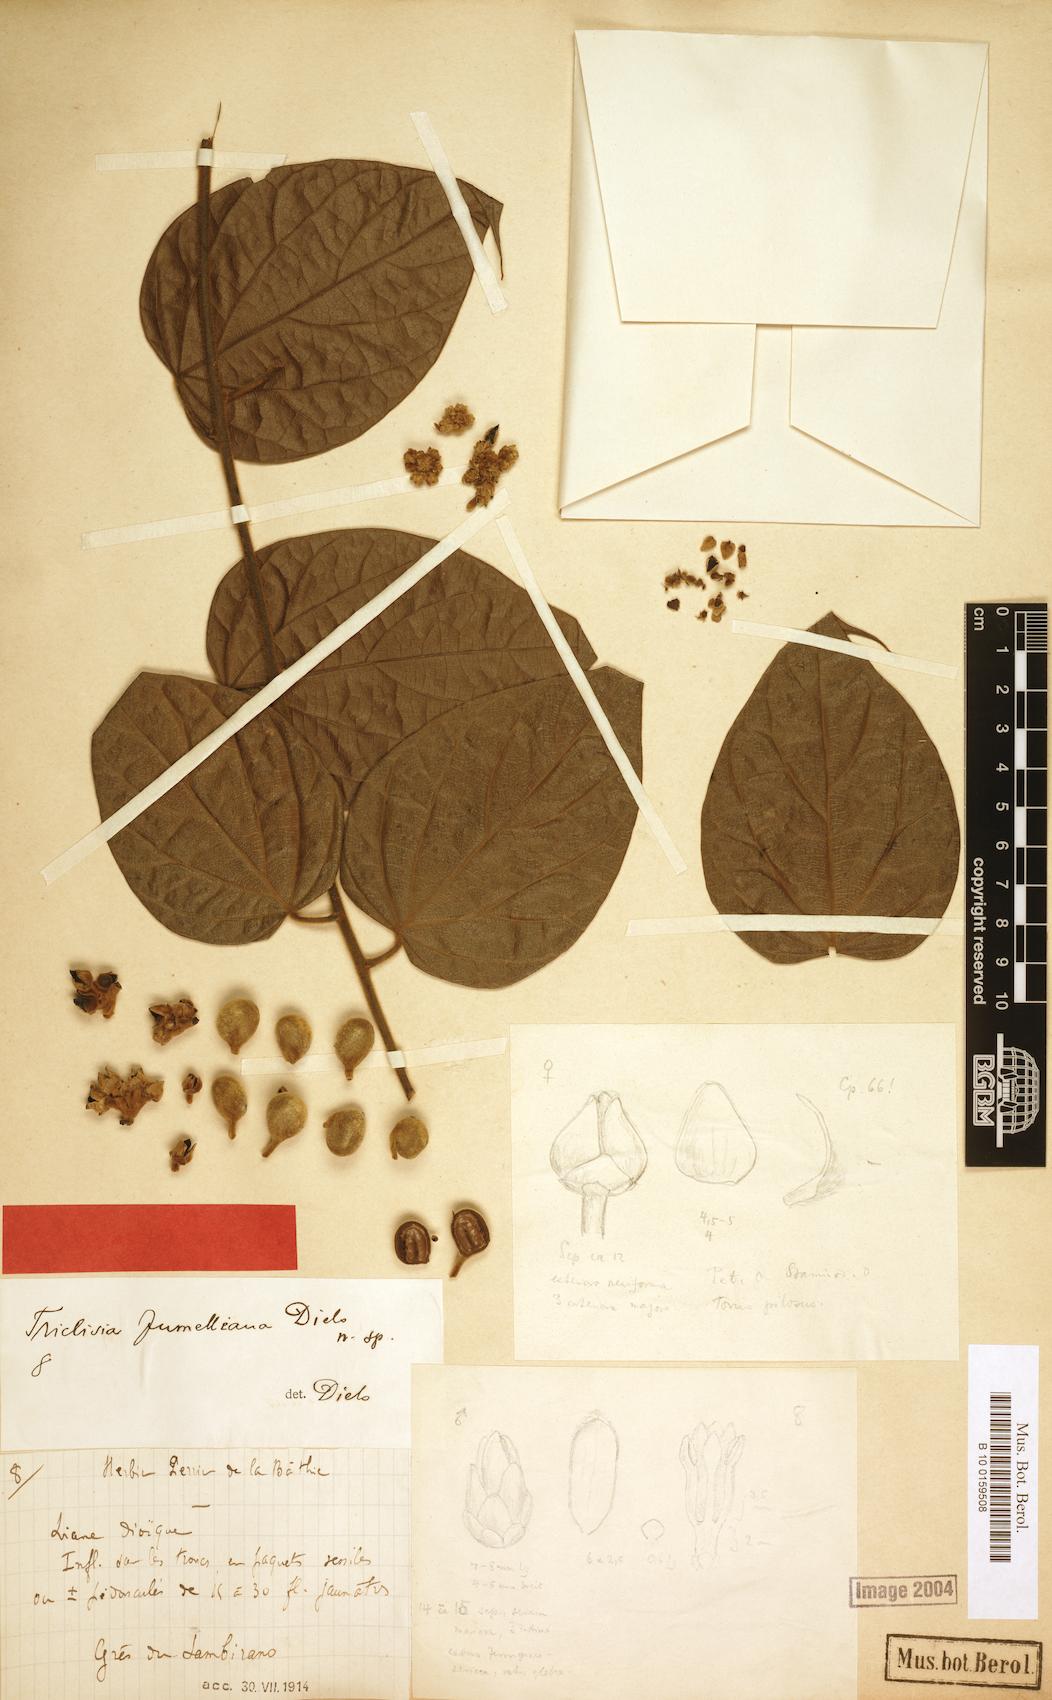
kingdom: Plantae
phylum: Tracheophyta
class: Magnoliopsida
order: Ranunculales
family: Menispermaceae
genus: Triclisia
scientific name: Triclisia jumelliana
